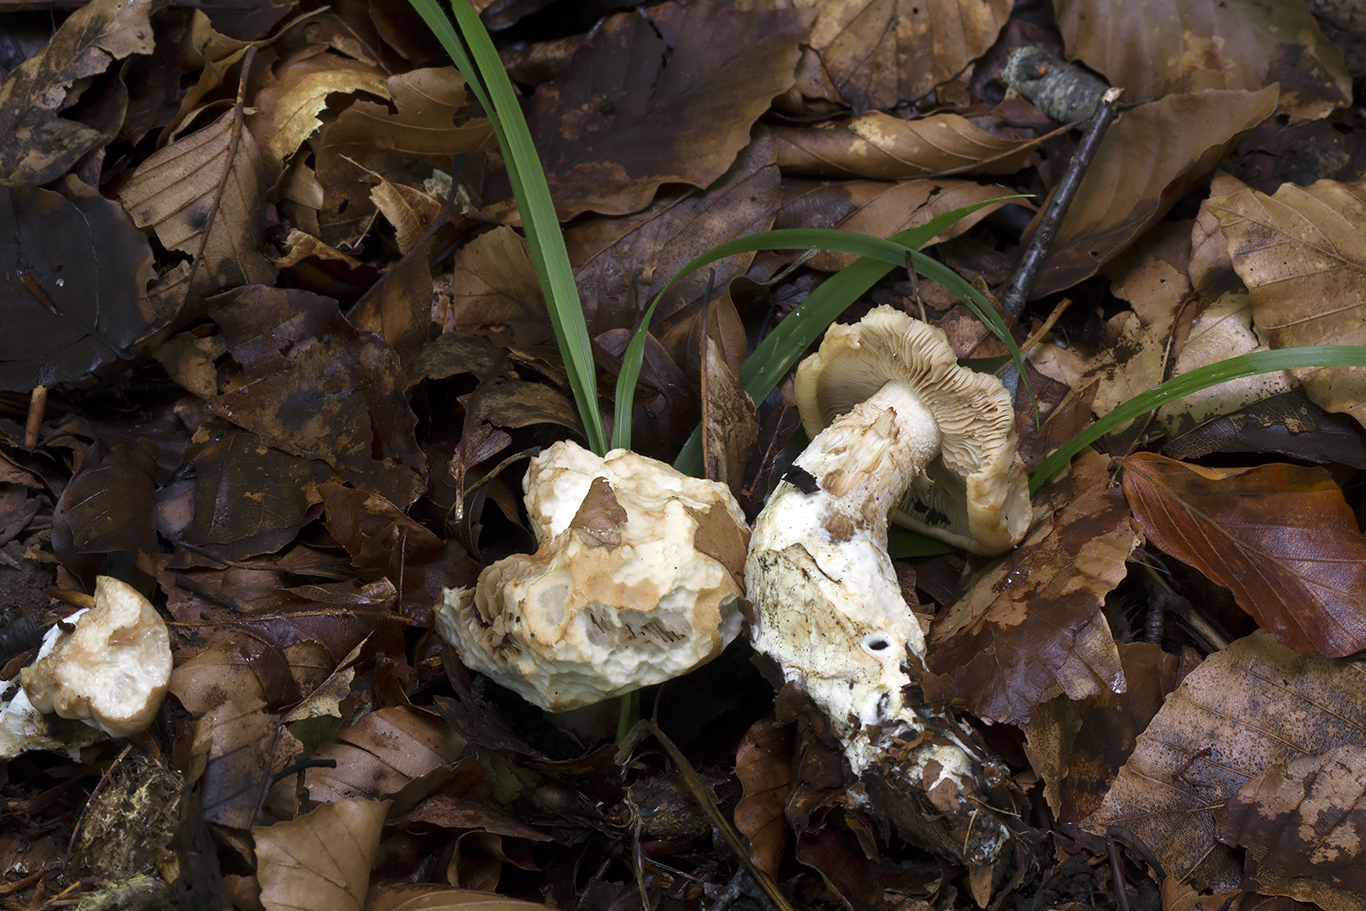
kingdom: Fungi
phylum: Basidiomycota
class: Agaricomycetes
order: Agaricales
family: Hymenogastraceae
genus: Hebeloma
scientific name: Hebeloma radicosum
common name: pælerods-tåreblad
